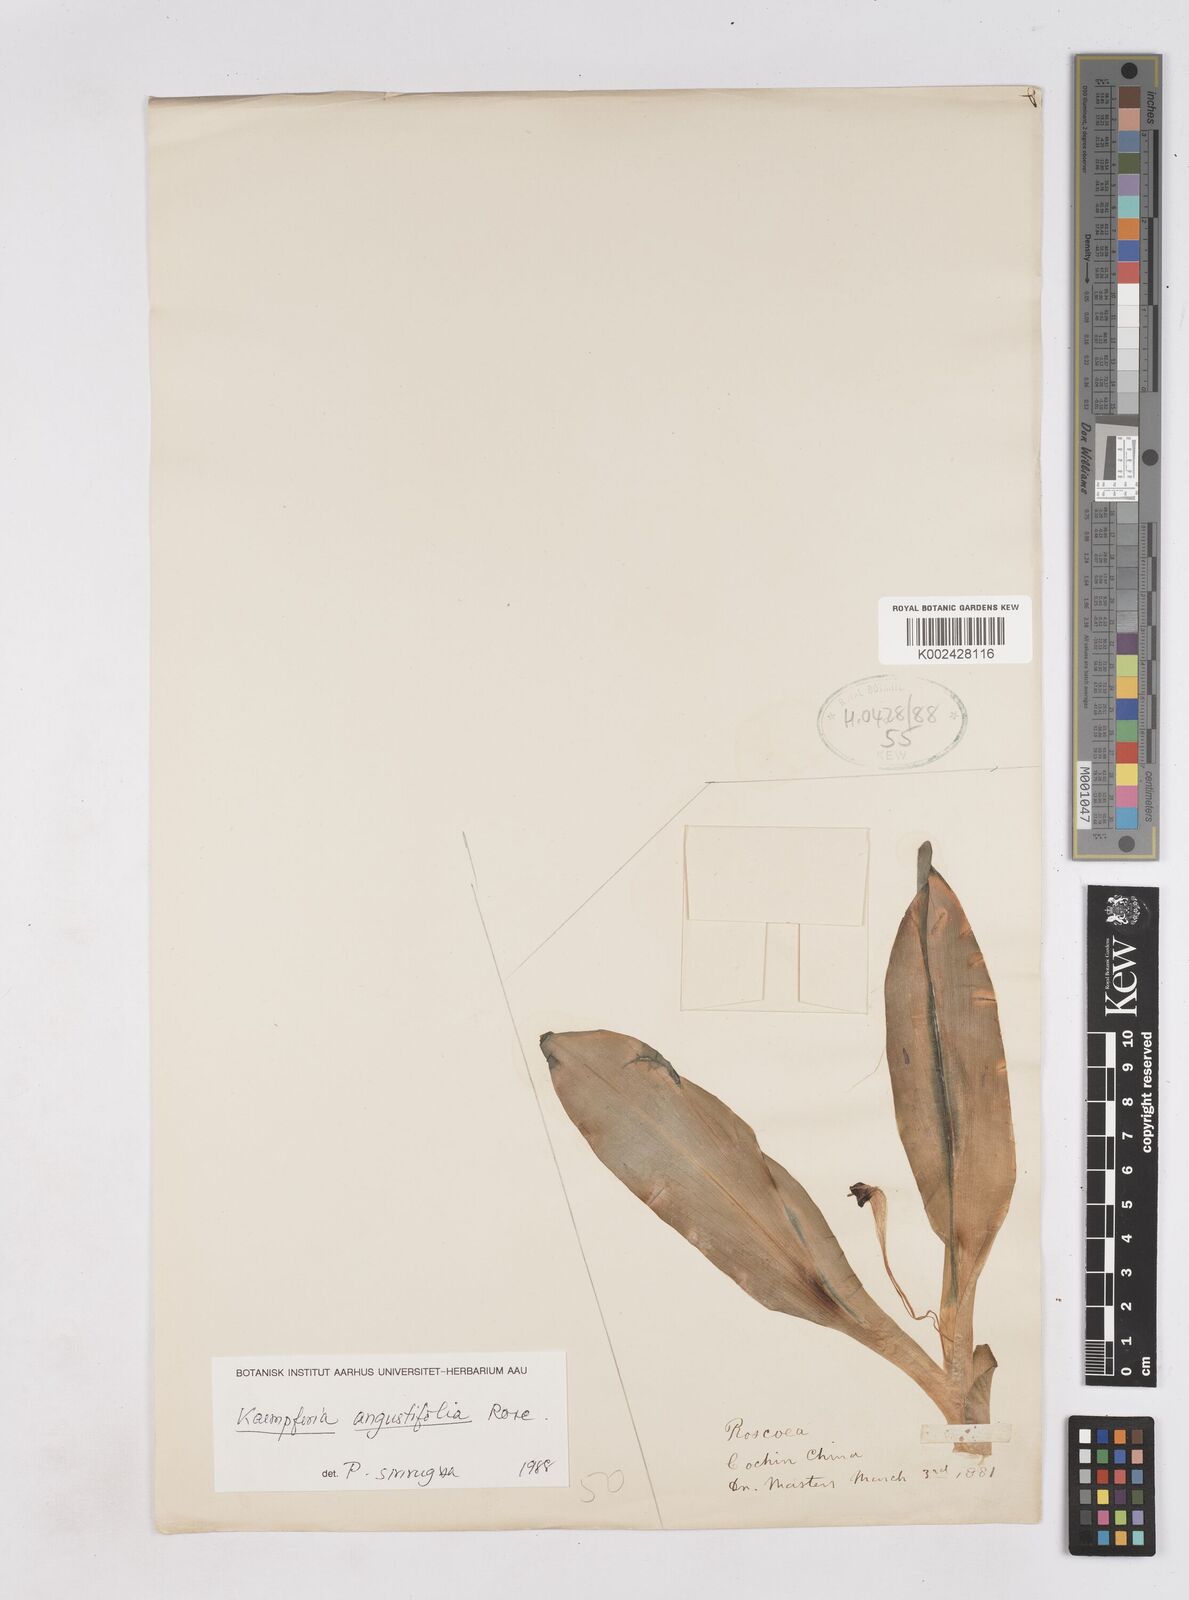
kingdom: Plantae
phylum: Tracheophyta
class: Liliopsida
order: Zingiberales
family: Zingiberaceae
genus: Kaempferia
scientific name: Kaempferia angustifolia
